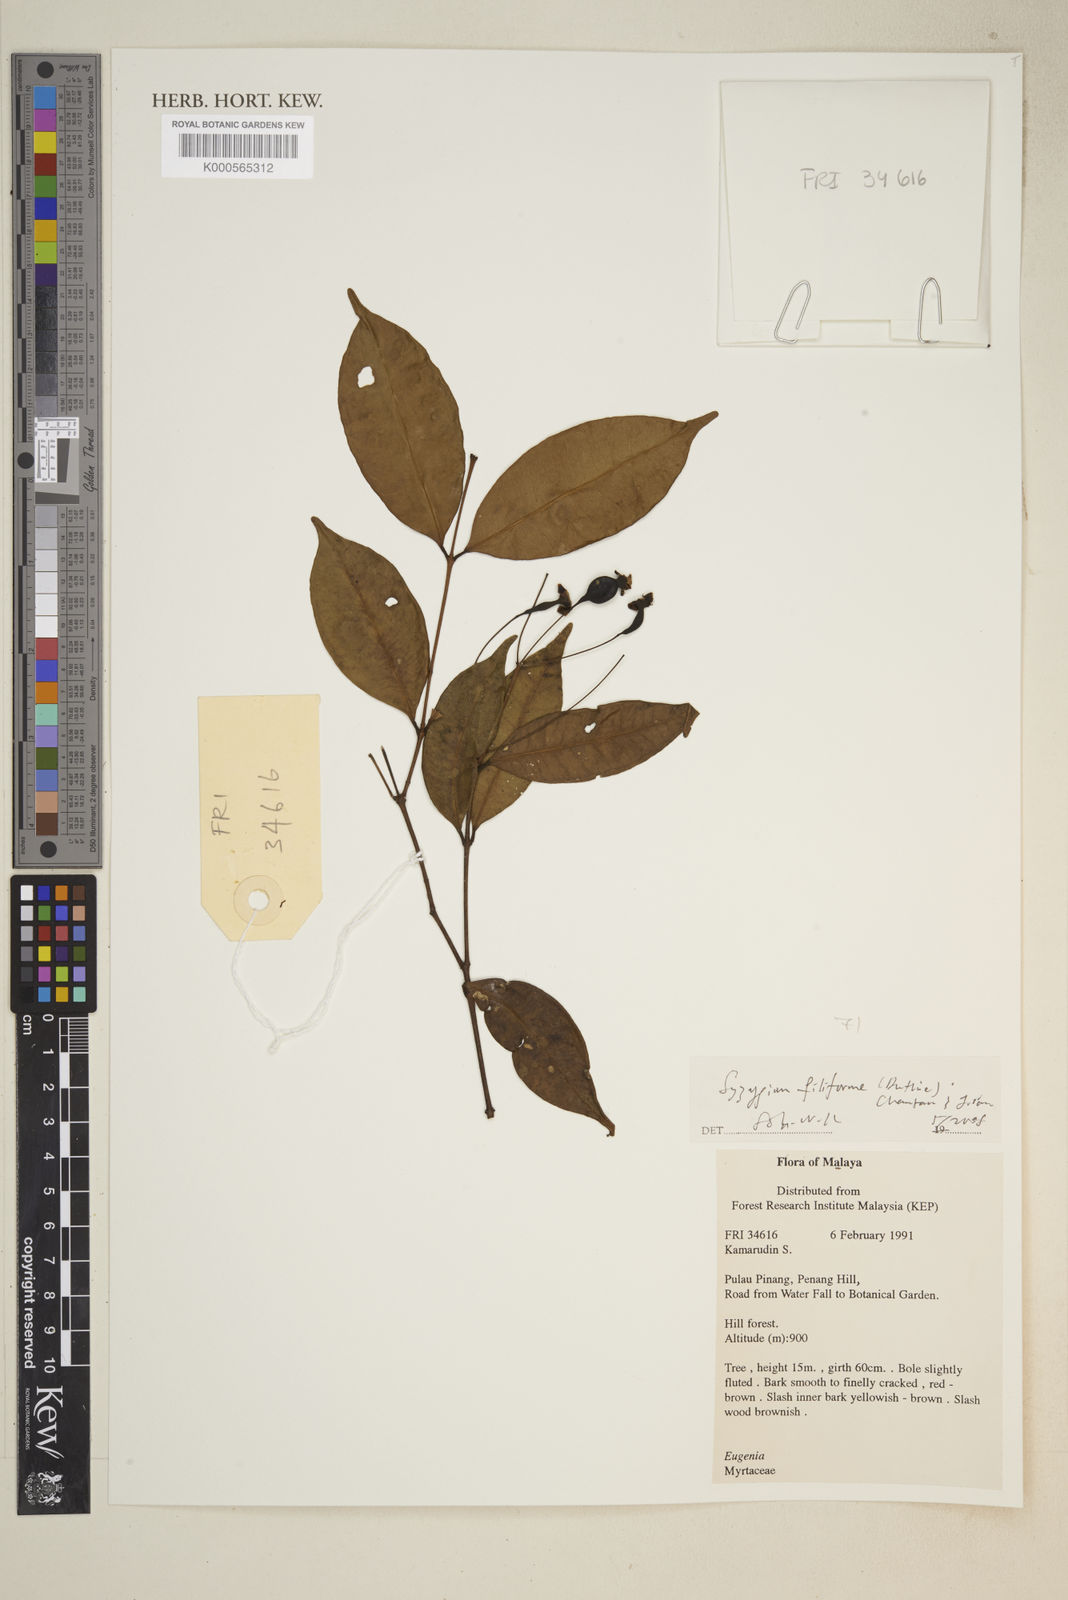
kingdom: Plantae
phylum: Tracheophyta
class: Magnoliopsida
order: Myrtales
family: Myrtaceae
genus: Syzygium
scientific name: Syzygium filiforme
